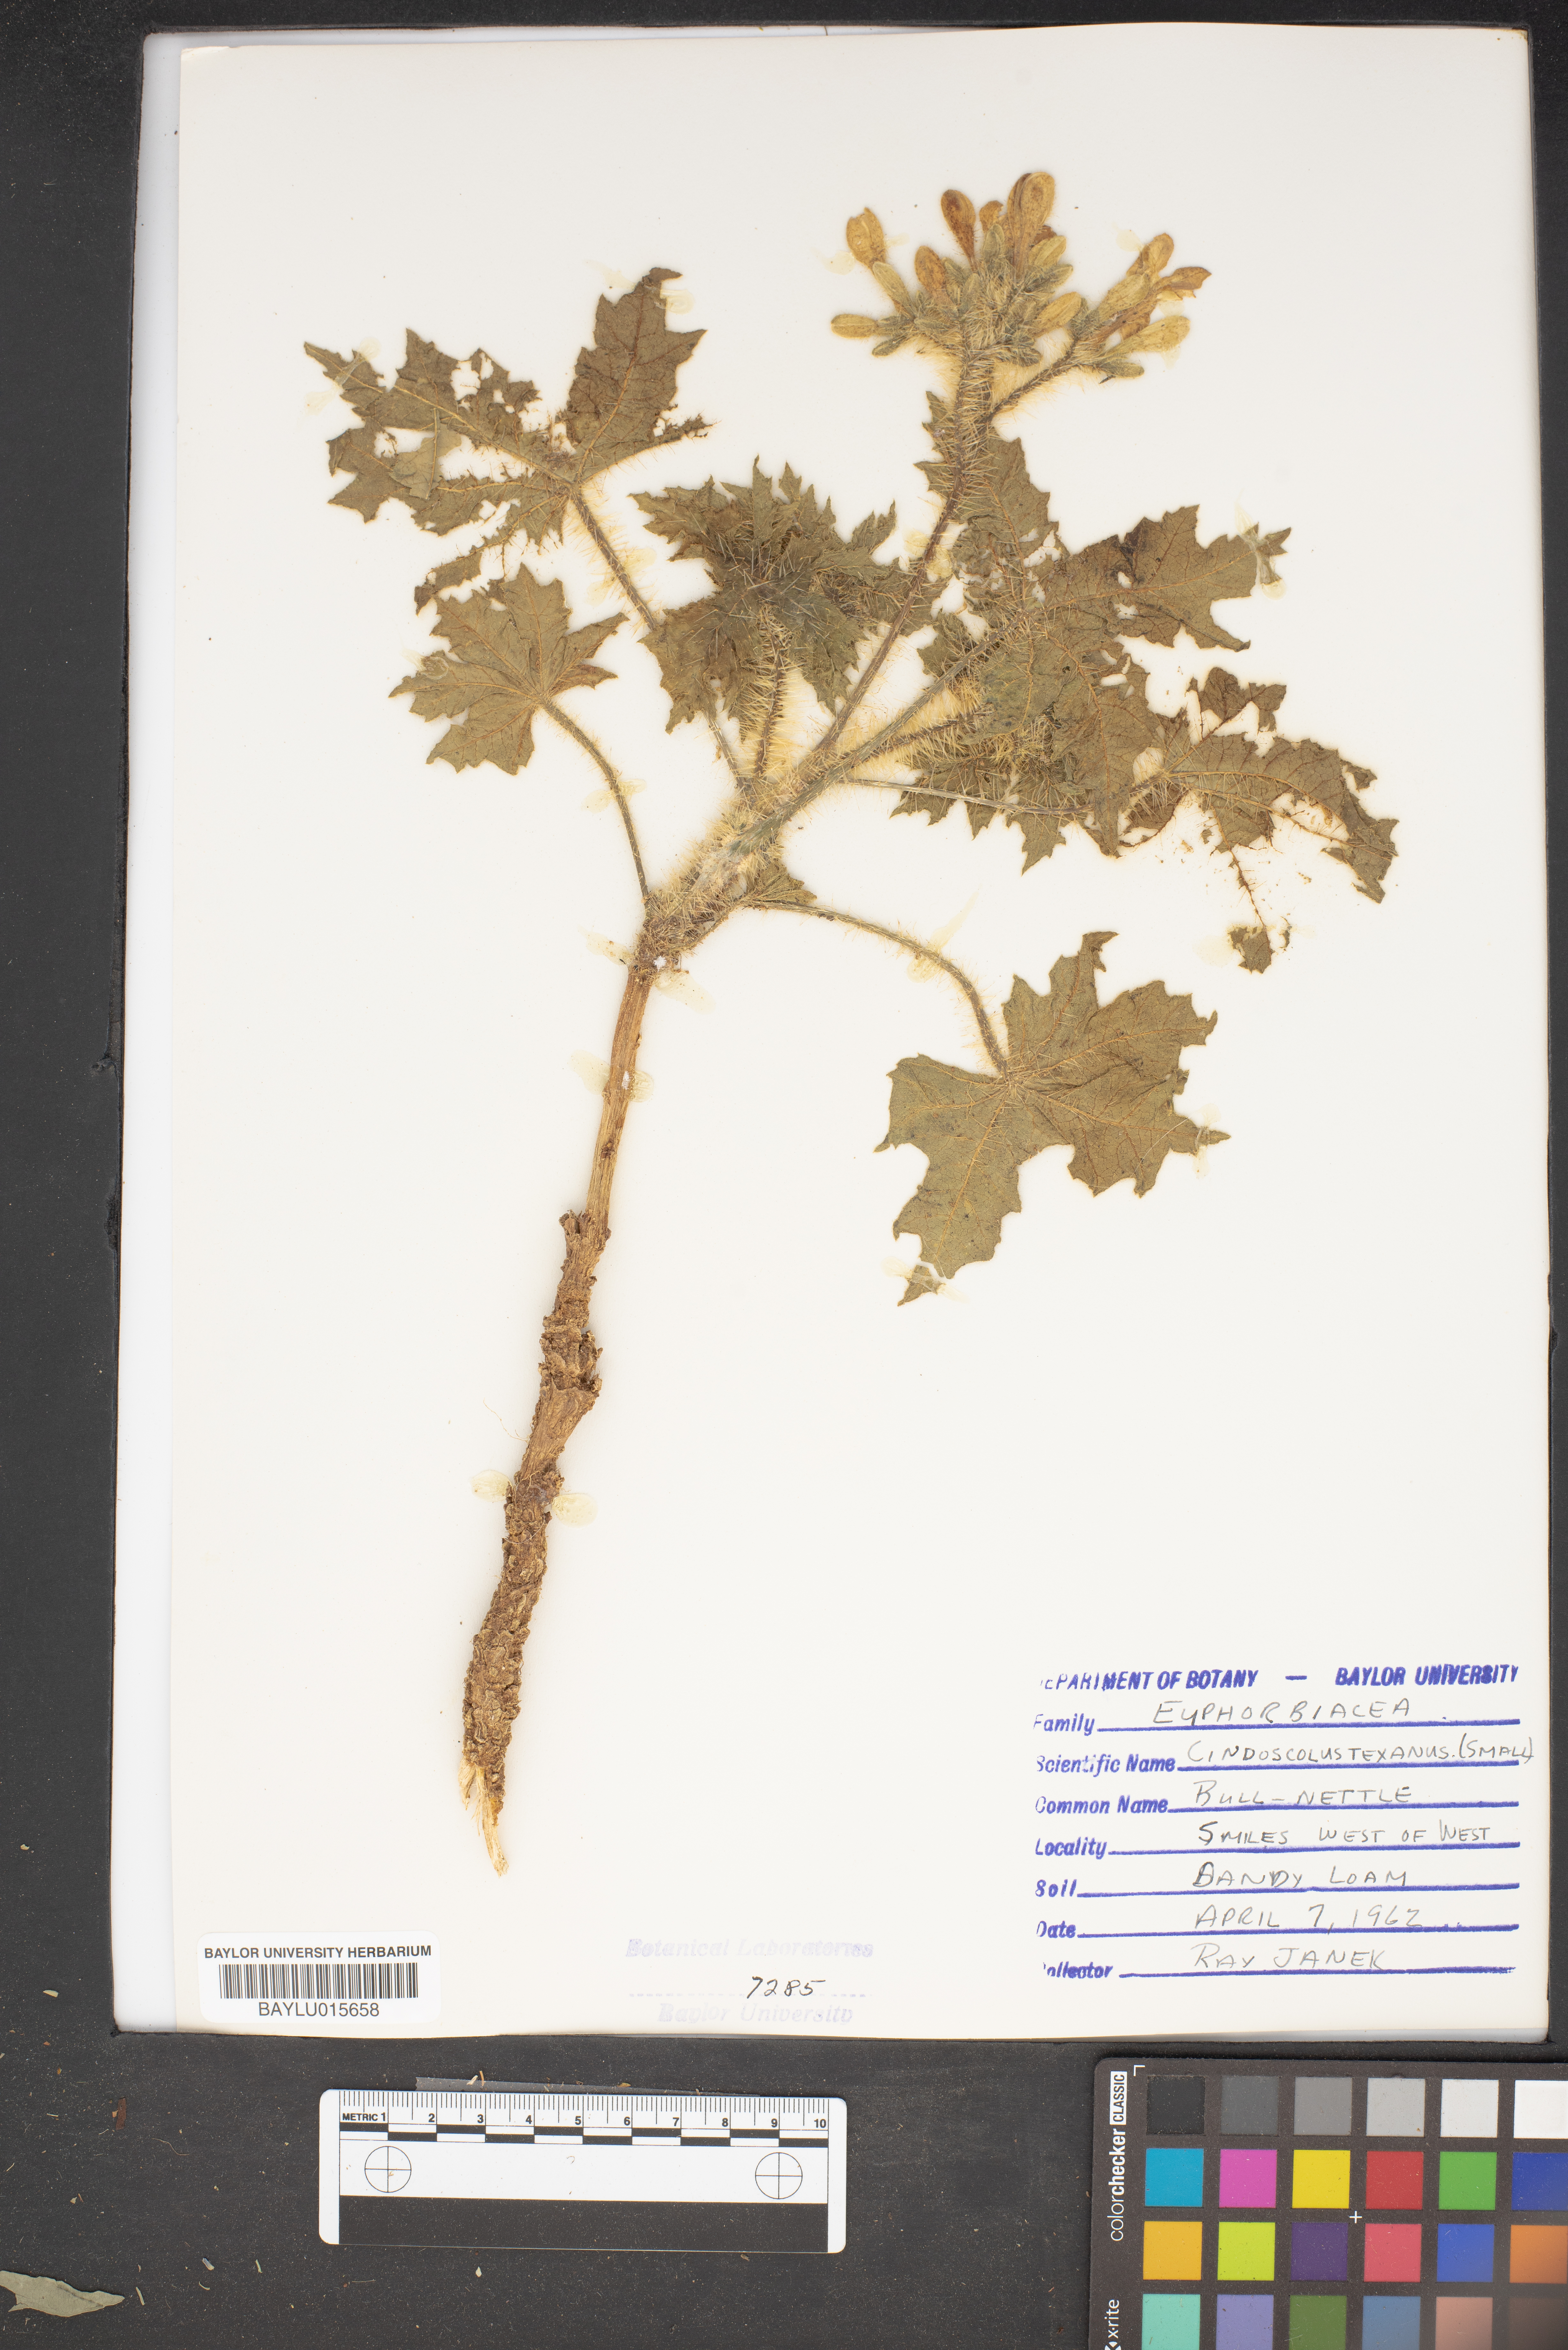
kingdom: Plantae
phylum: Tracheophyta
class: Magnoliopsida
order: Malpighiales
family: Euphorbiaceae
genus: Cnidoscolus
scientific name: Cnidoscolus texanus
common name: Texas bull-nettle
